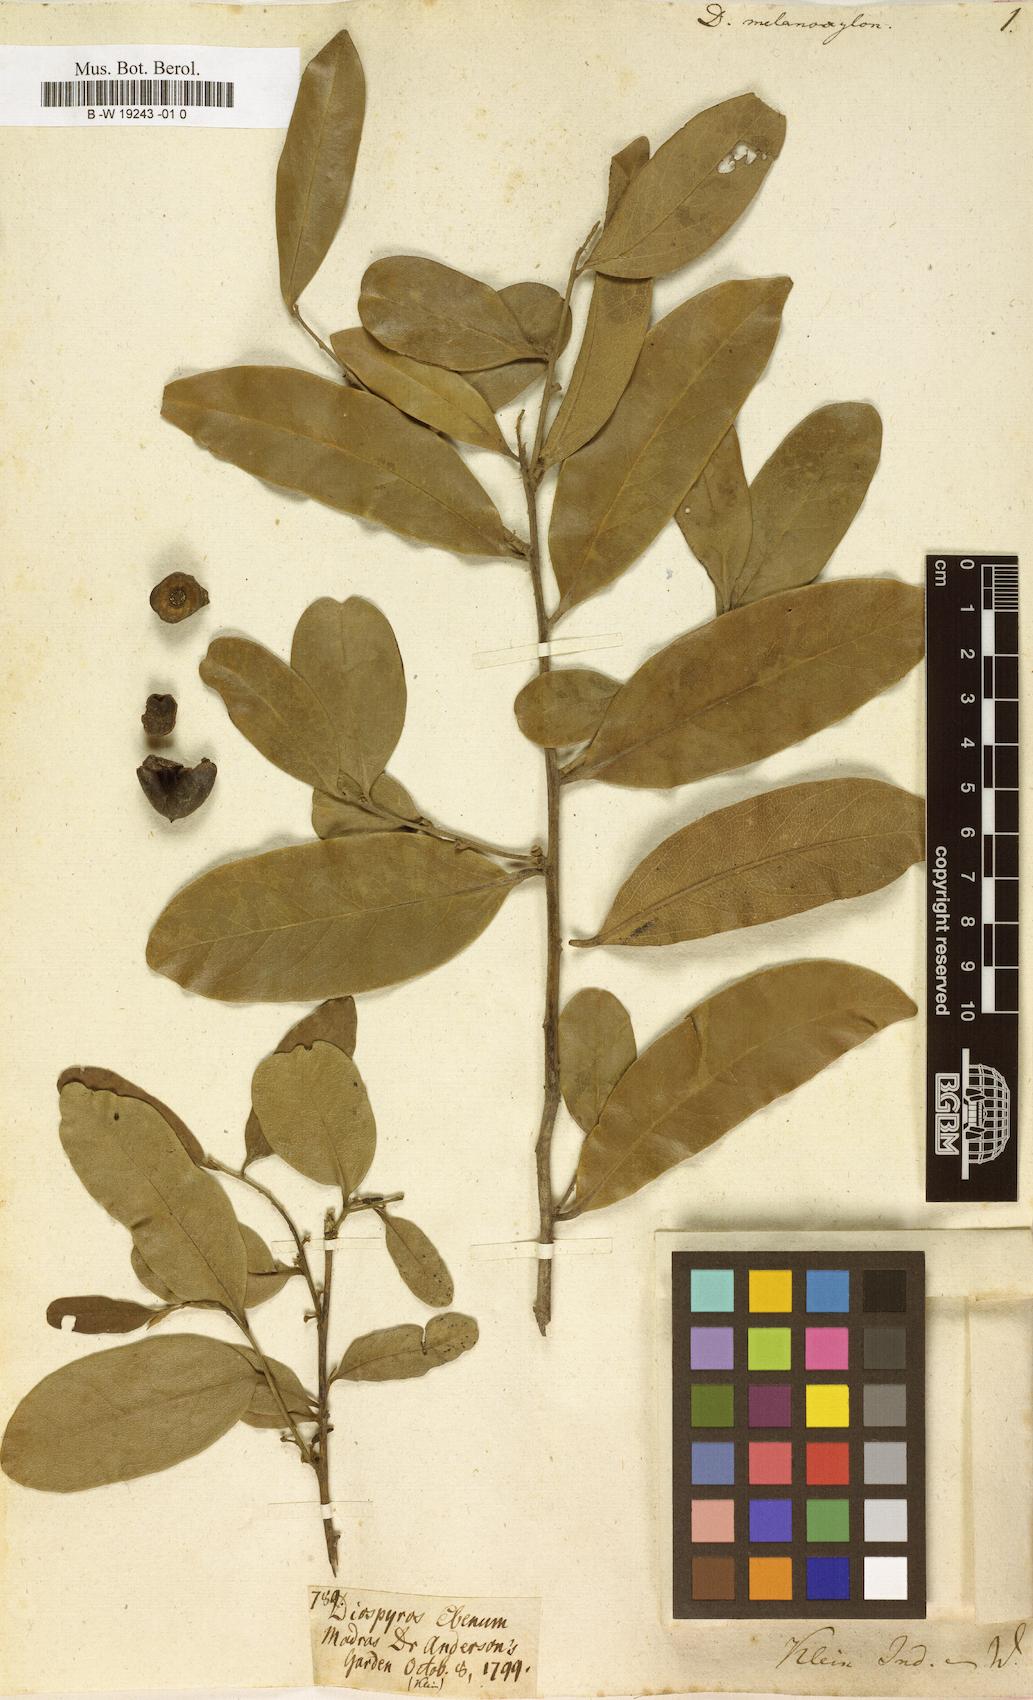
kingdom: Plantae
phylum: Tracheophyta
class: Magnoliopsida
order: Ericales
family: Ebenaceae
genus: Diospyros
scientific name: Diospyros melanoxylon
